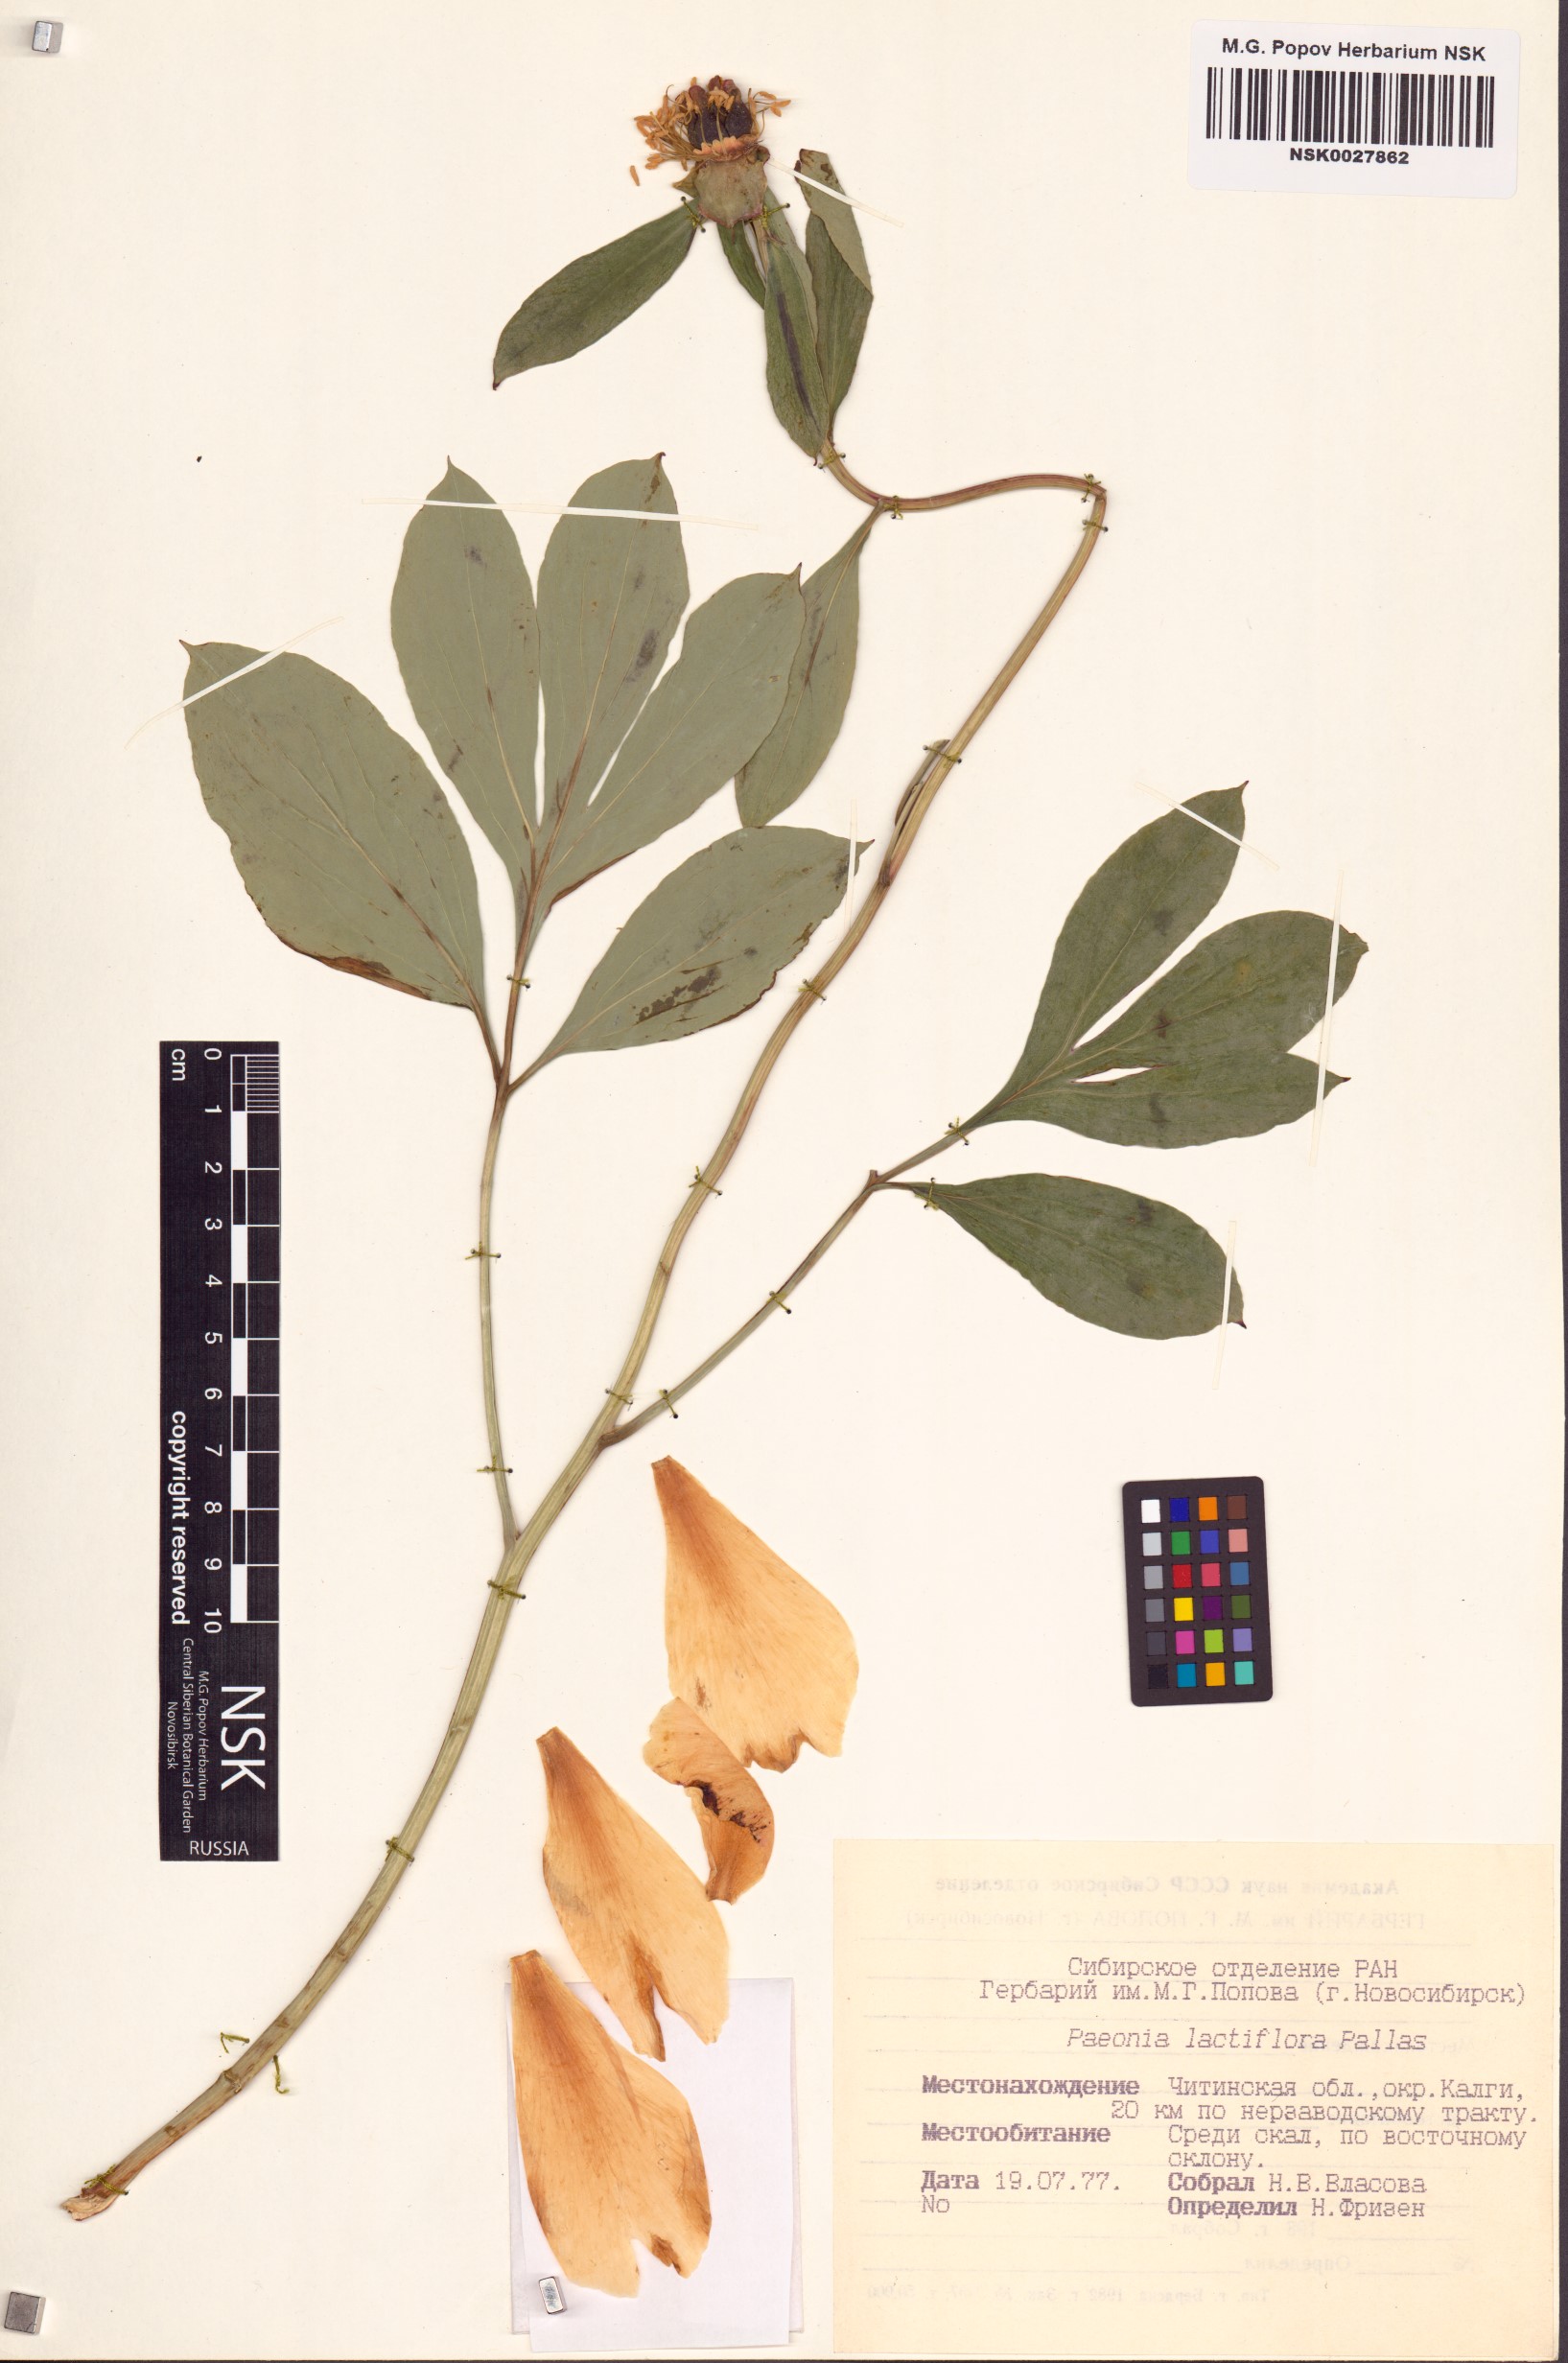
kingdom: Plantae
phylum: Tracheophyta
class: Magnoliopsida
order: Saxifragales
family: Paeoniaceae
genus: Paeonia
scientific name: Paeonia lactiflora
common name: Chinese peony
